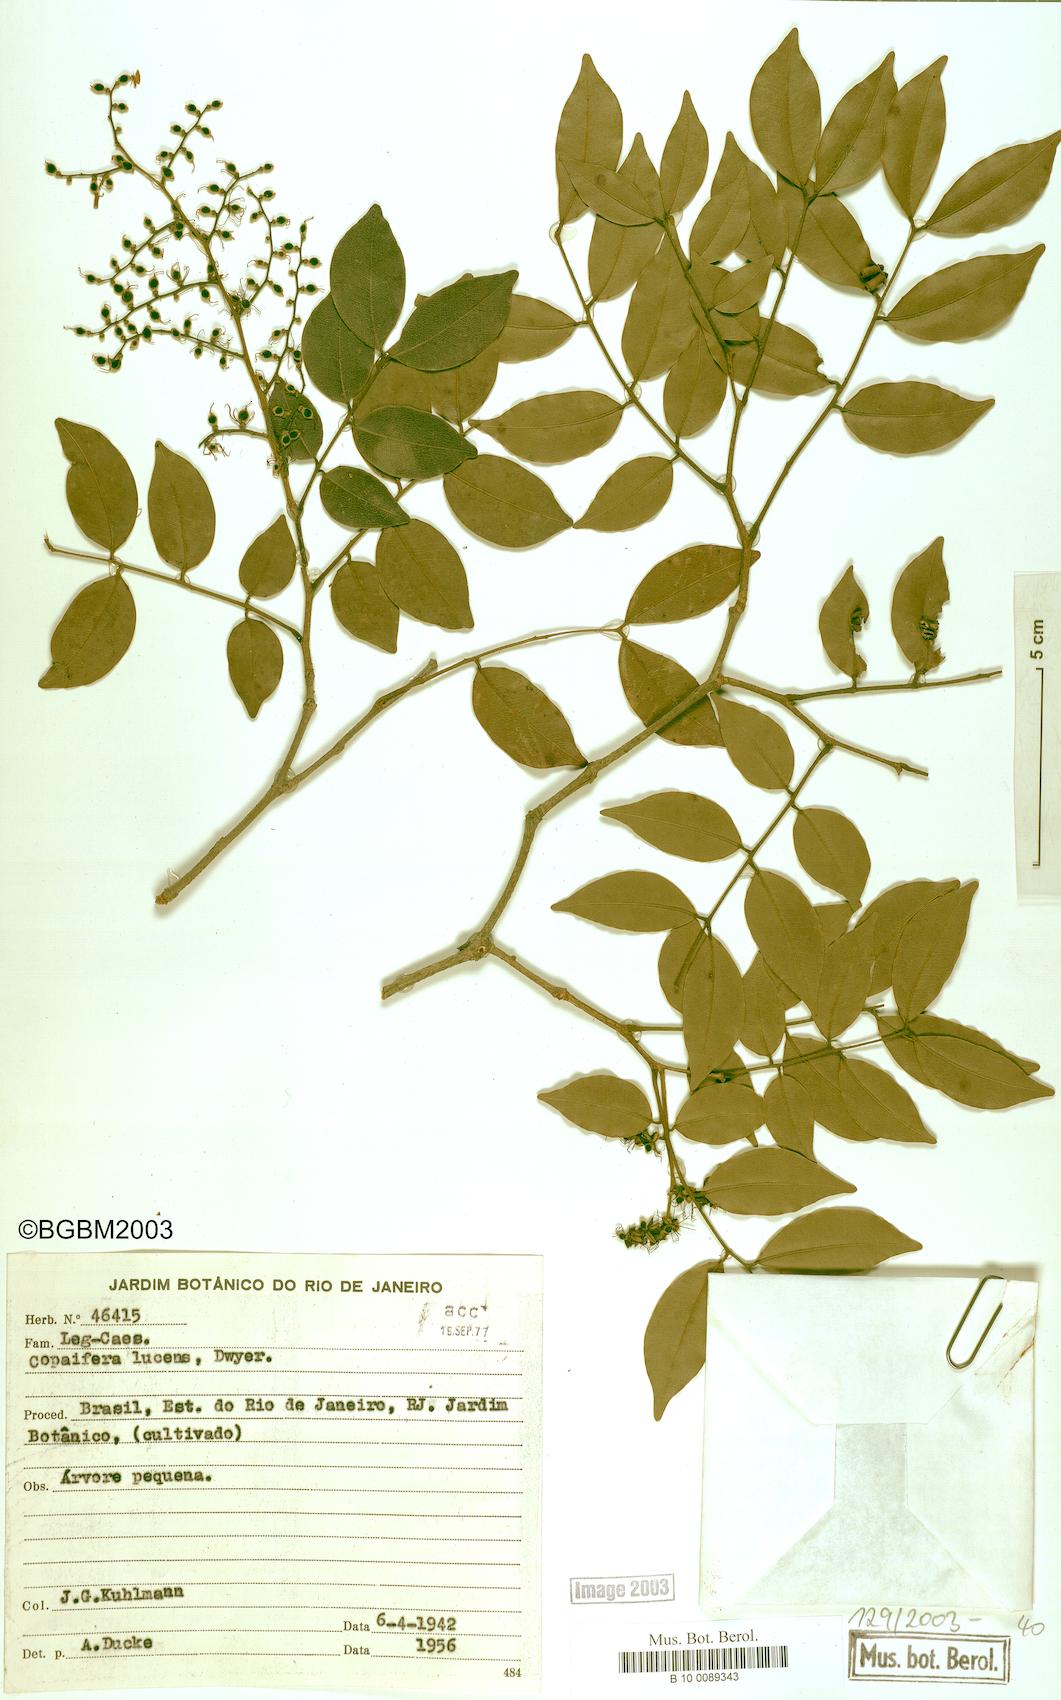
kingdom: Plantae
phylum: Tracheophyta
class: Magnoliopsida
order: Fabales
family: Fabaceae
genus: Copaifera
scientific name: Copaifera lucens
